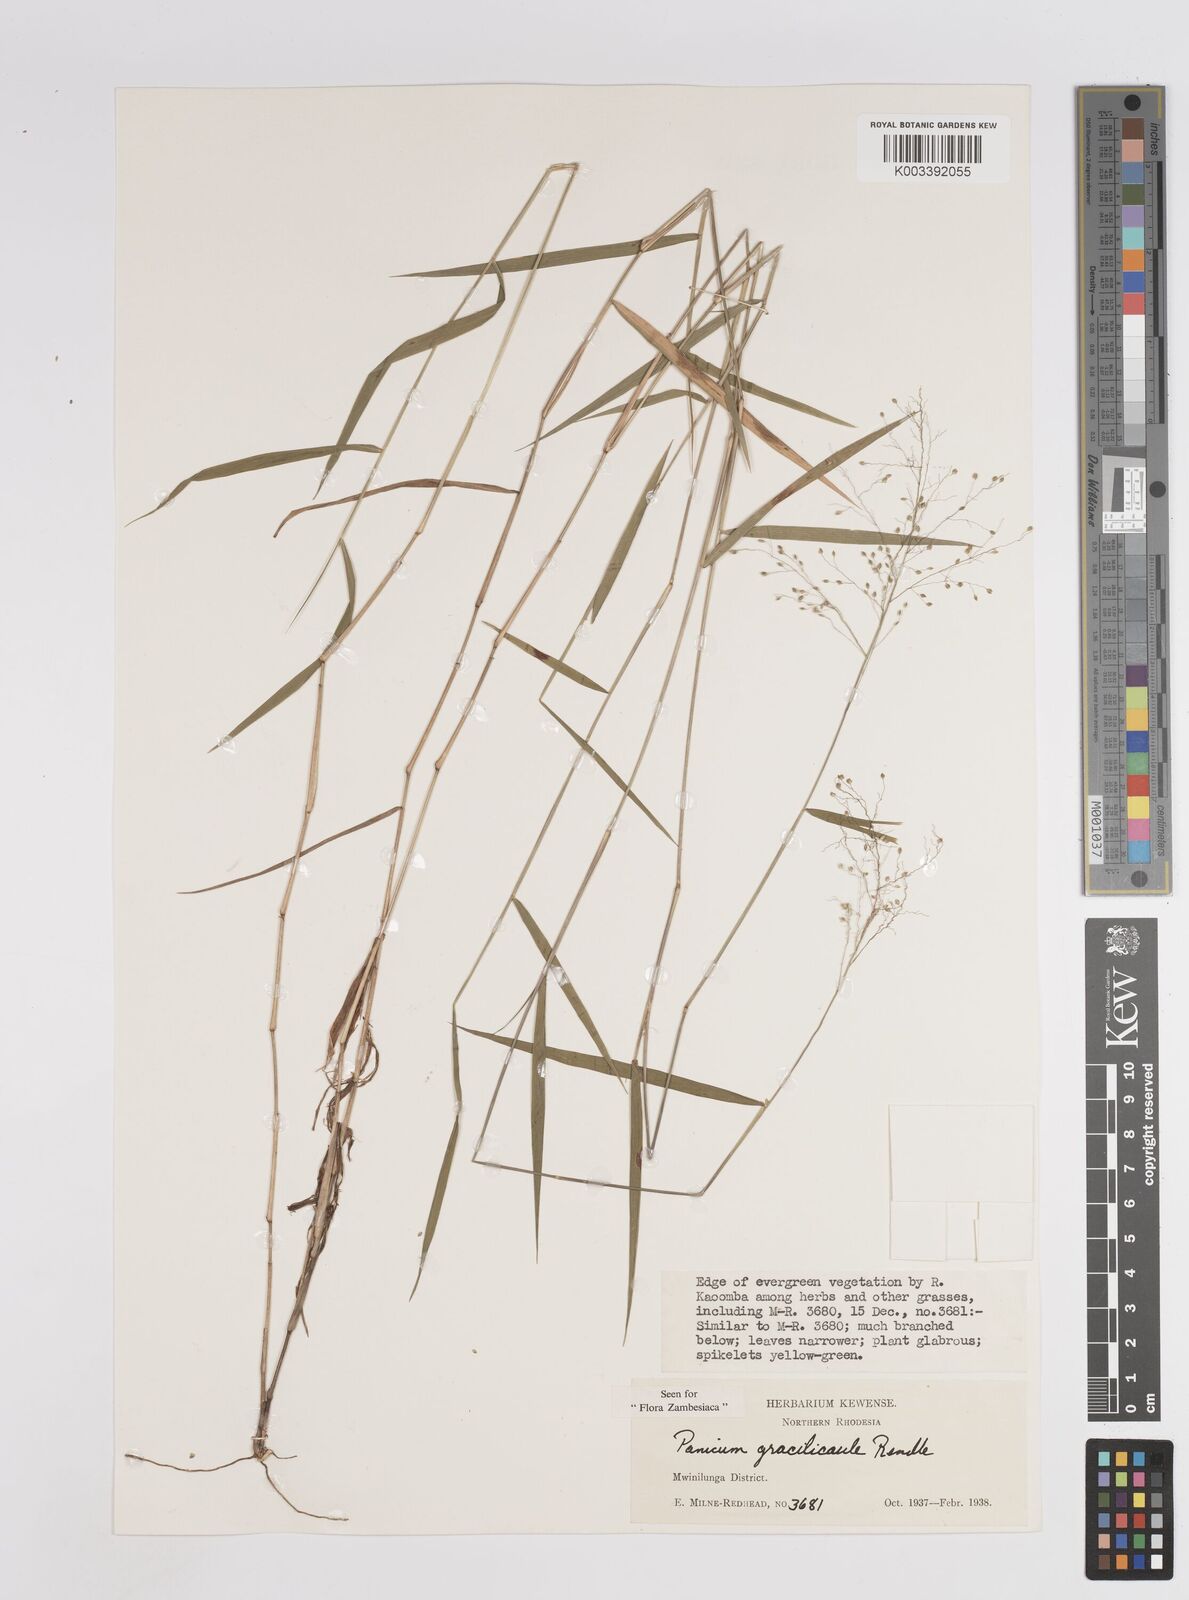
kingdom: Plantae
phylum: Tracheophyta
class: Liliopsida
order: Poales
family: Poaceae
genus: Trichanthecium
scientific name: Trichanthecium gracilicaule
